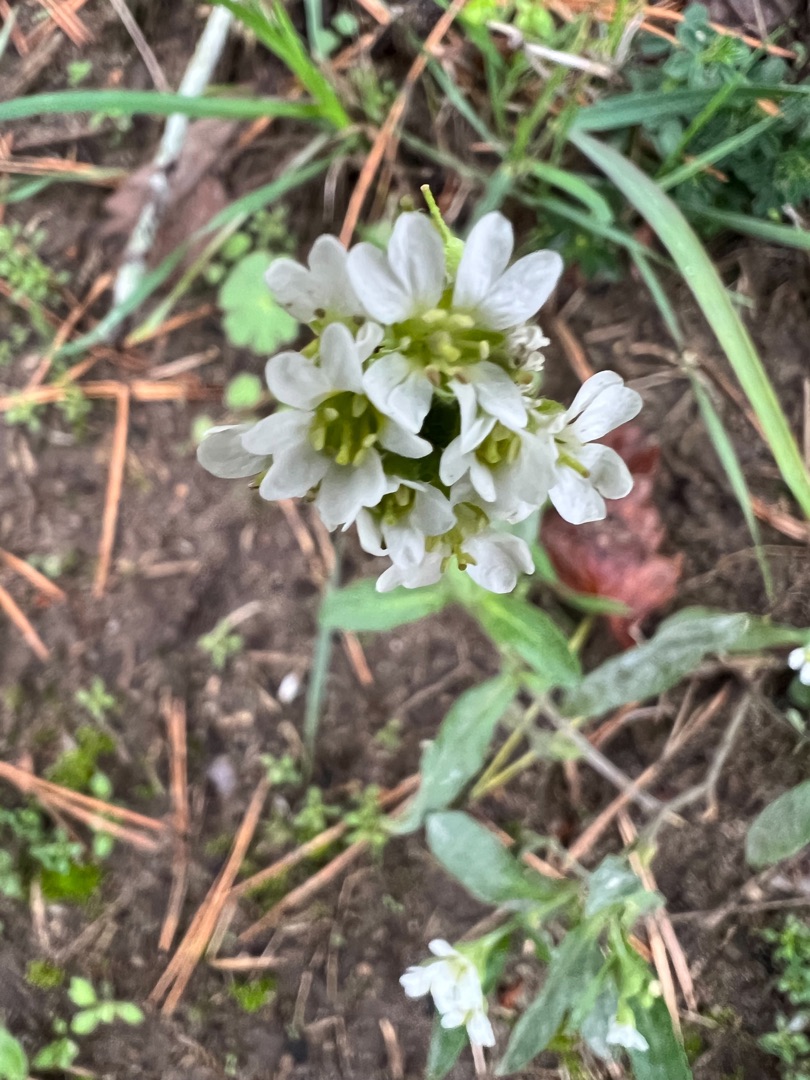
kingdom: Plantae
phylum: Tracheophyta
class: Magnoliopsida
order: Brassicales
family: Brassicaceae
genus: Berteroa
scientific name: Berteroa incana
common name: Kløvplade
